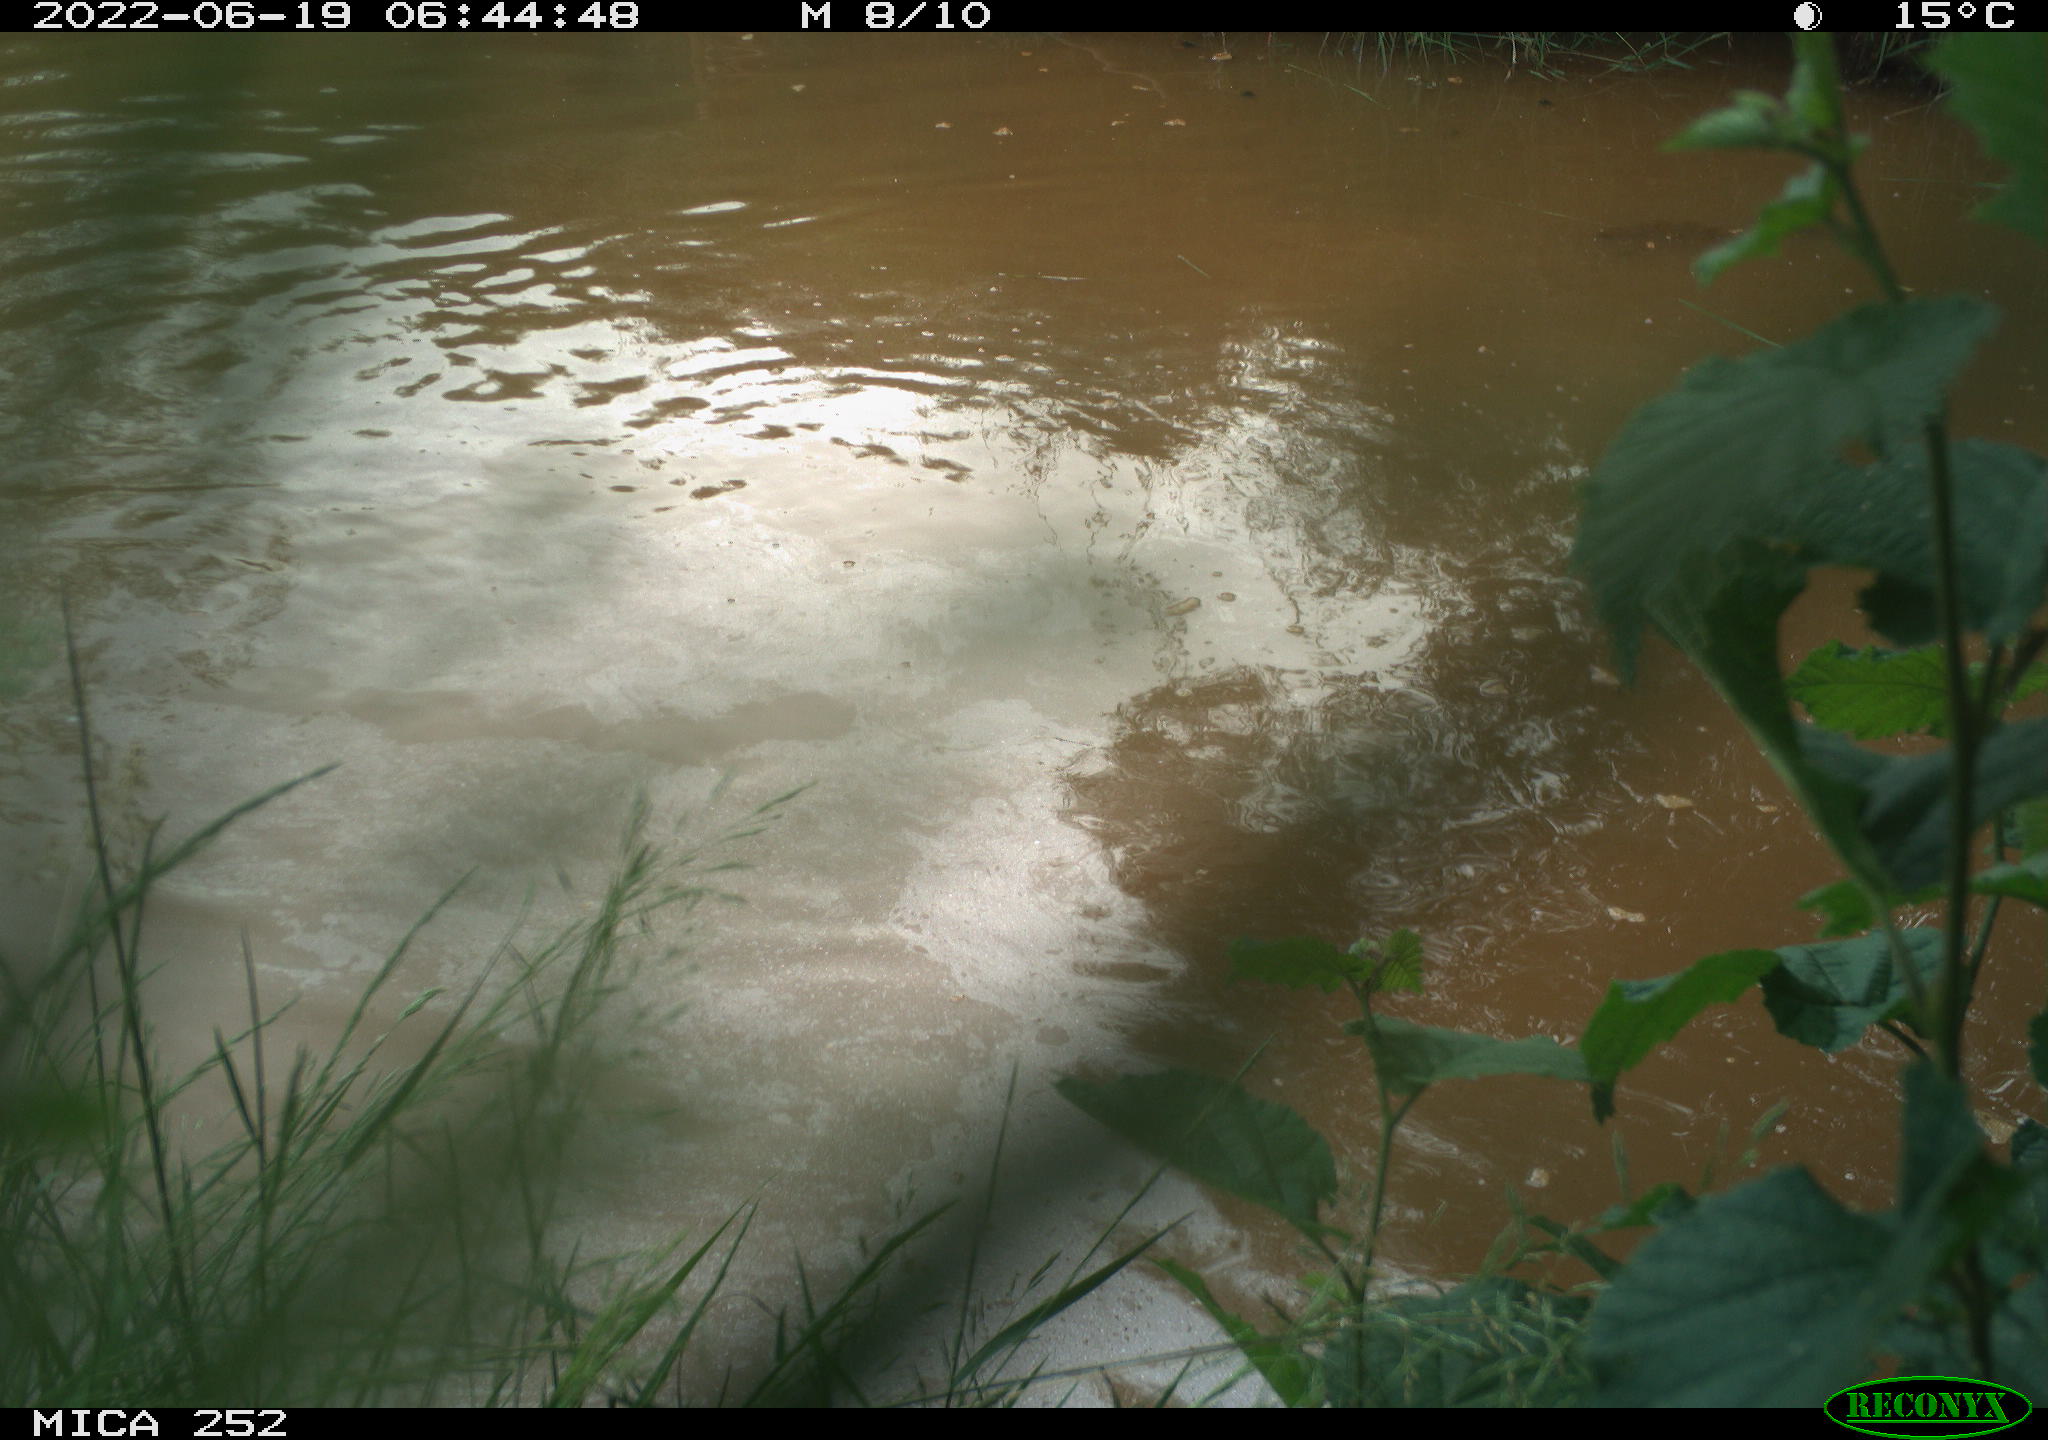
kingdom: Animalia
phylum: Chordata
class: Aves
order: Anseriformes
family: Anatidae
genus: Anser
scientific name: Anser anser
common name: Greylag goose
